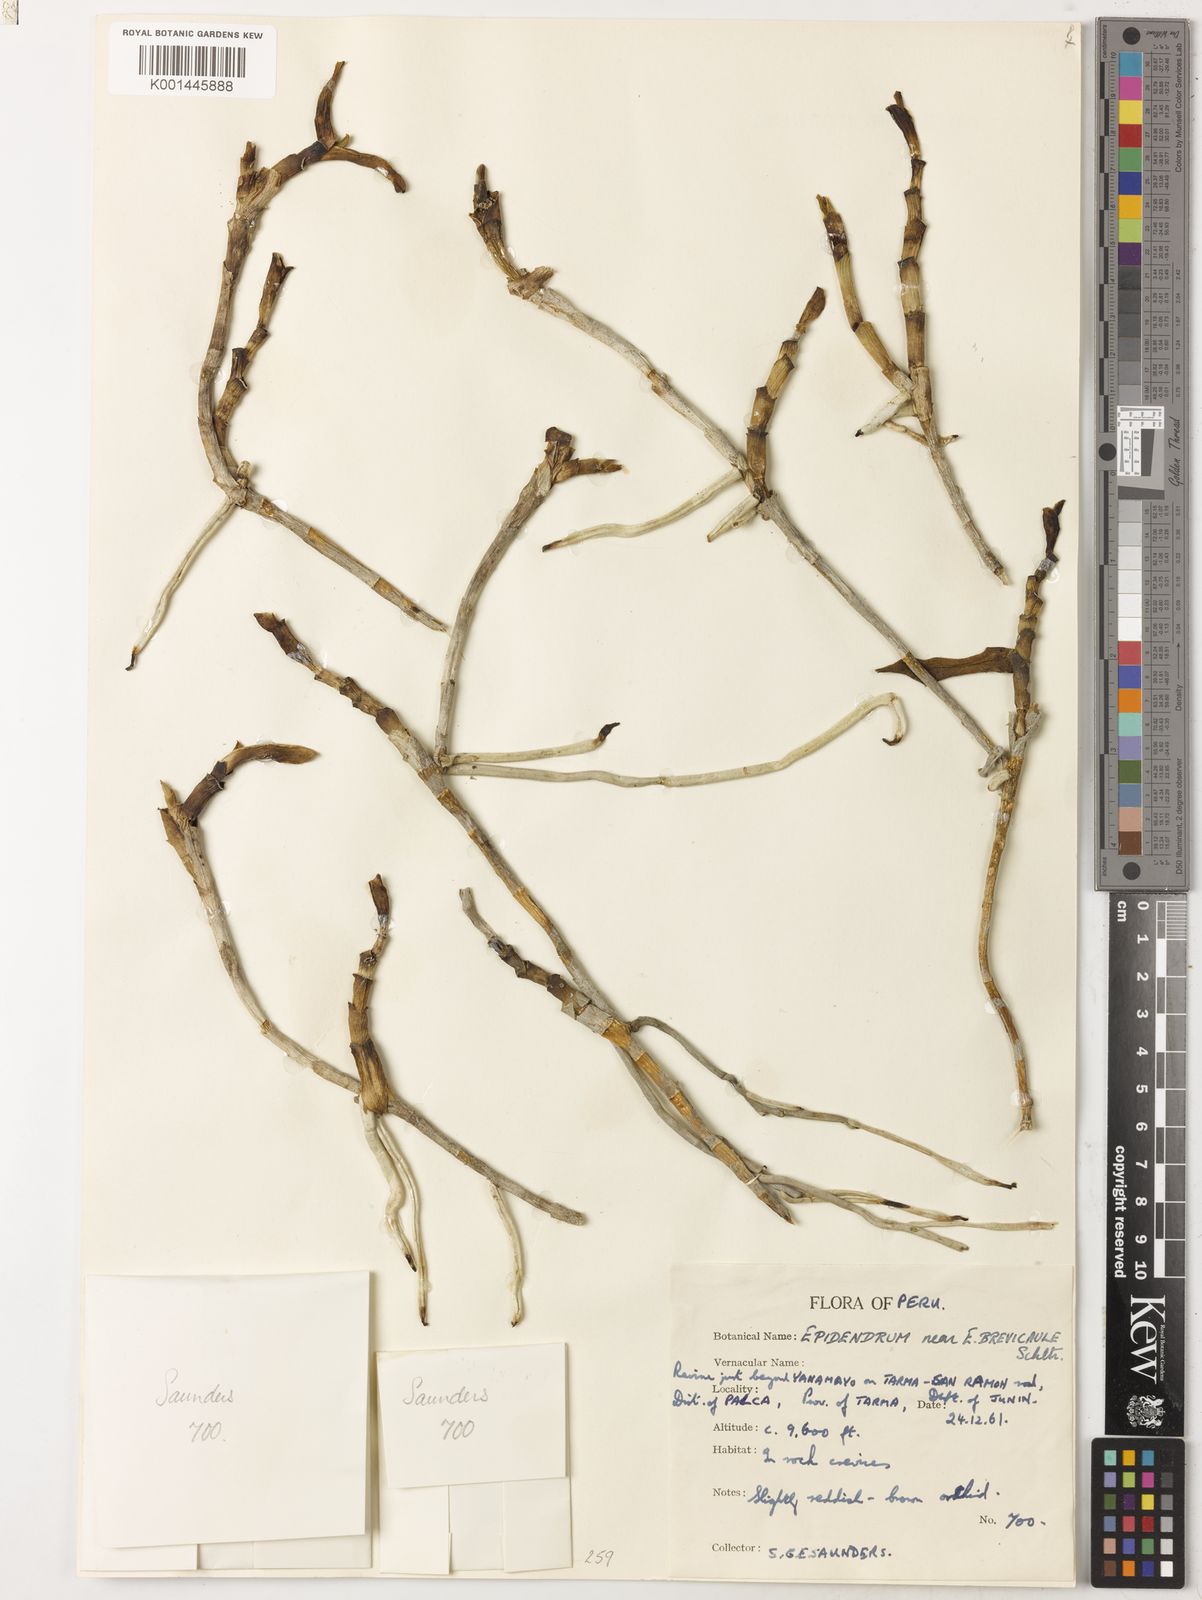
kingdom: Plantae
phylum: Tracheophyta
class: Liliopsida
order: Asparagales
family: Orchidaceae
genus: Epidendrum
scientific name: Epidendrum brevicaule
